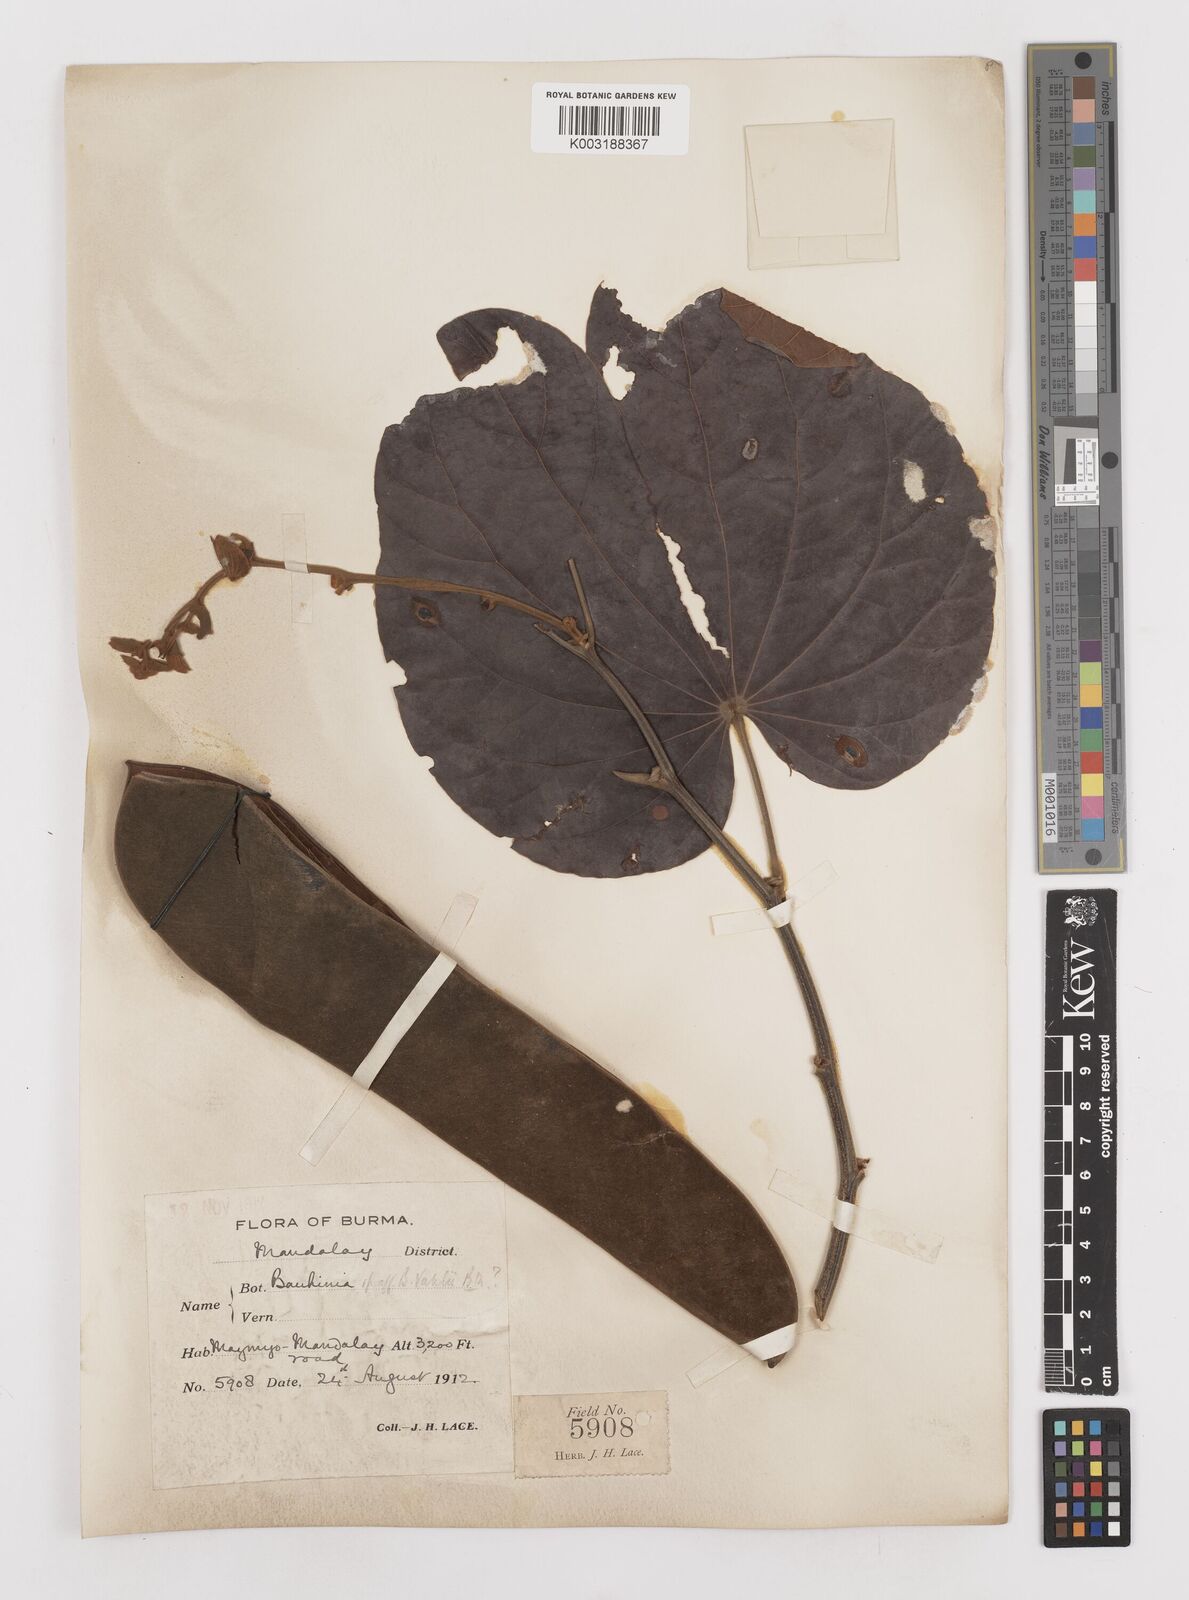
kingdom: Plantae
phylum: Tracheophyta
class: Magnoliopsida
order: Fabales
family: Fabaceae
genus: Phanera
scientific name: Phanera integrifolia
